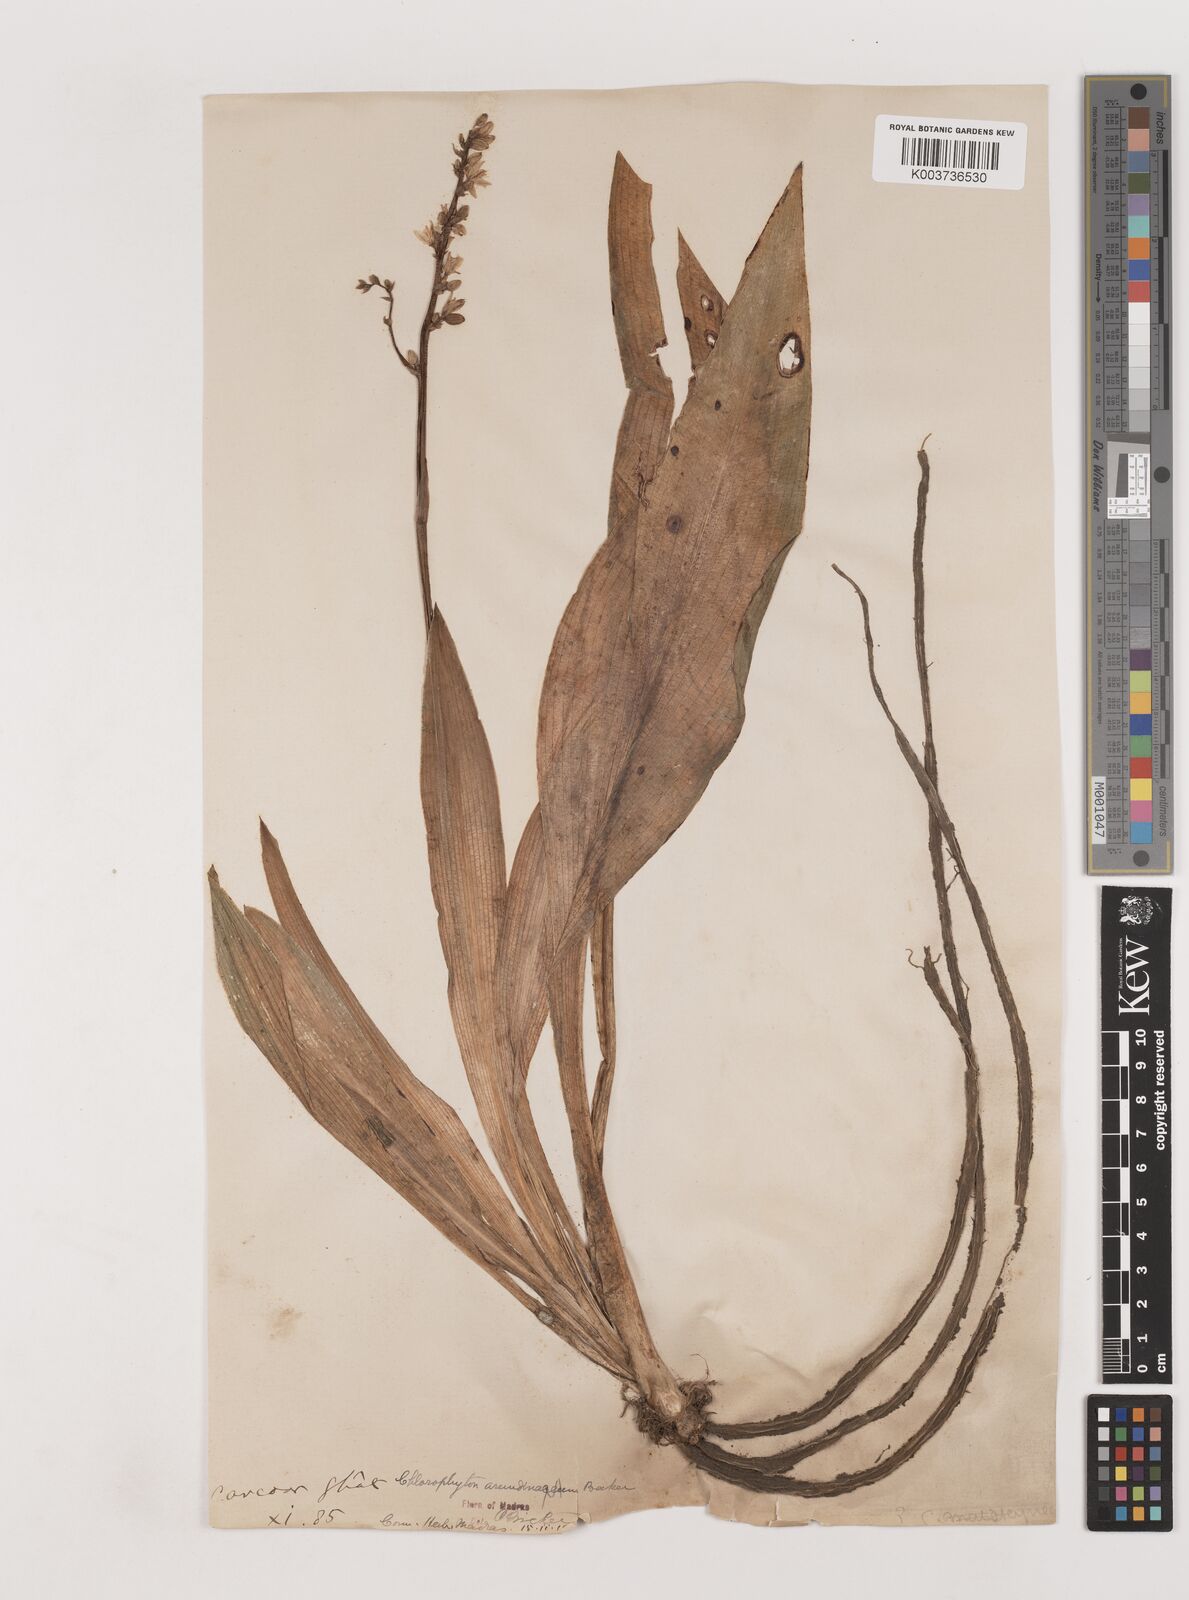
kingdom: Plantae
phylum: Tracheophyta
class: Liliopsida
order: Asparagales
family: Asparagaceae
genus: Chlorophytum
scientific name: Chlorophytum arundinaceum
